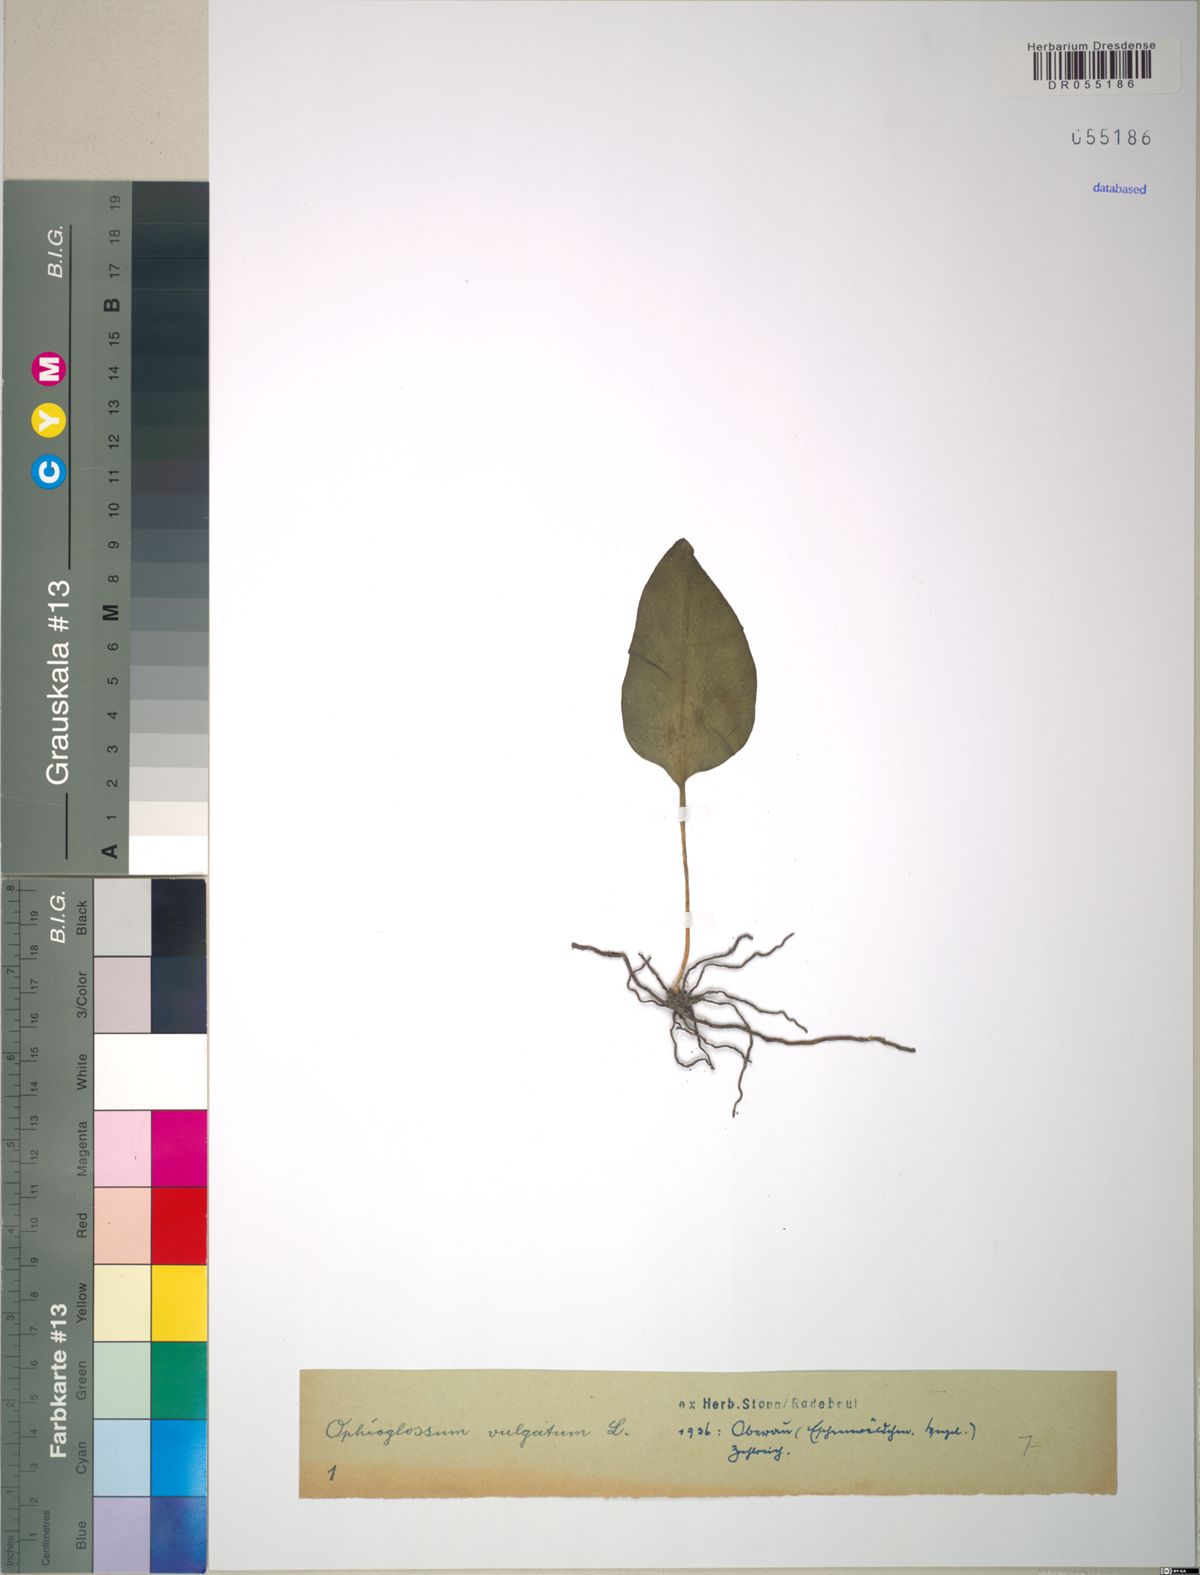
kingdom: Plantae
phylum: Tracheophyta
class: Polypodiopsida
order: Ophioglossales
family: Ophioglossaceae
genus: Ophioglossum
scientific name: Ophioglossum vulgatum
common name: Adder's-tongue
